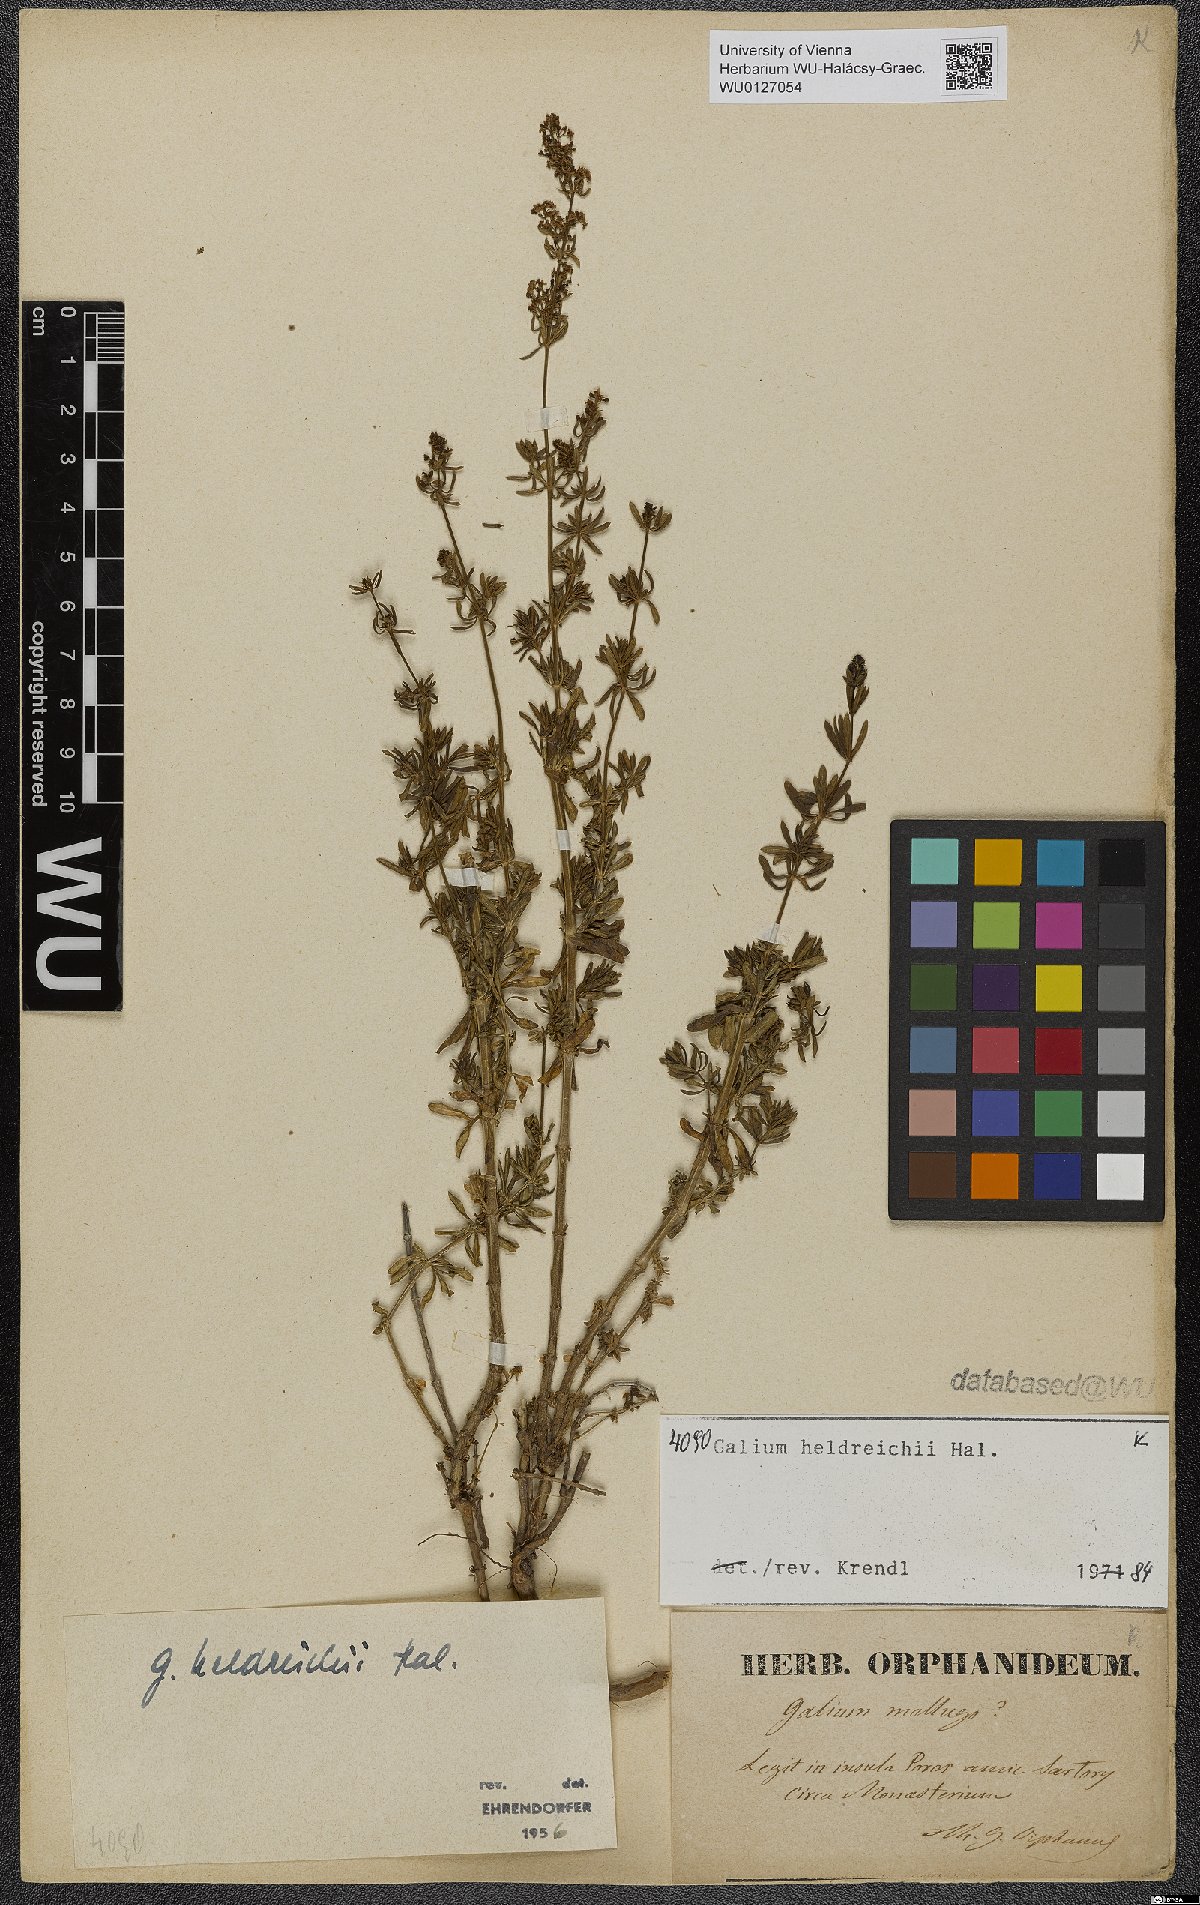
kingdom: Plantae
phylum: Tracheophyta
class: Magnoliopsida
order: Gentianales
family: Rubiaceae
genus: Galium
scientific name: Galium heldreichii
